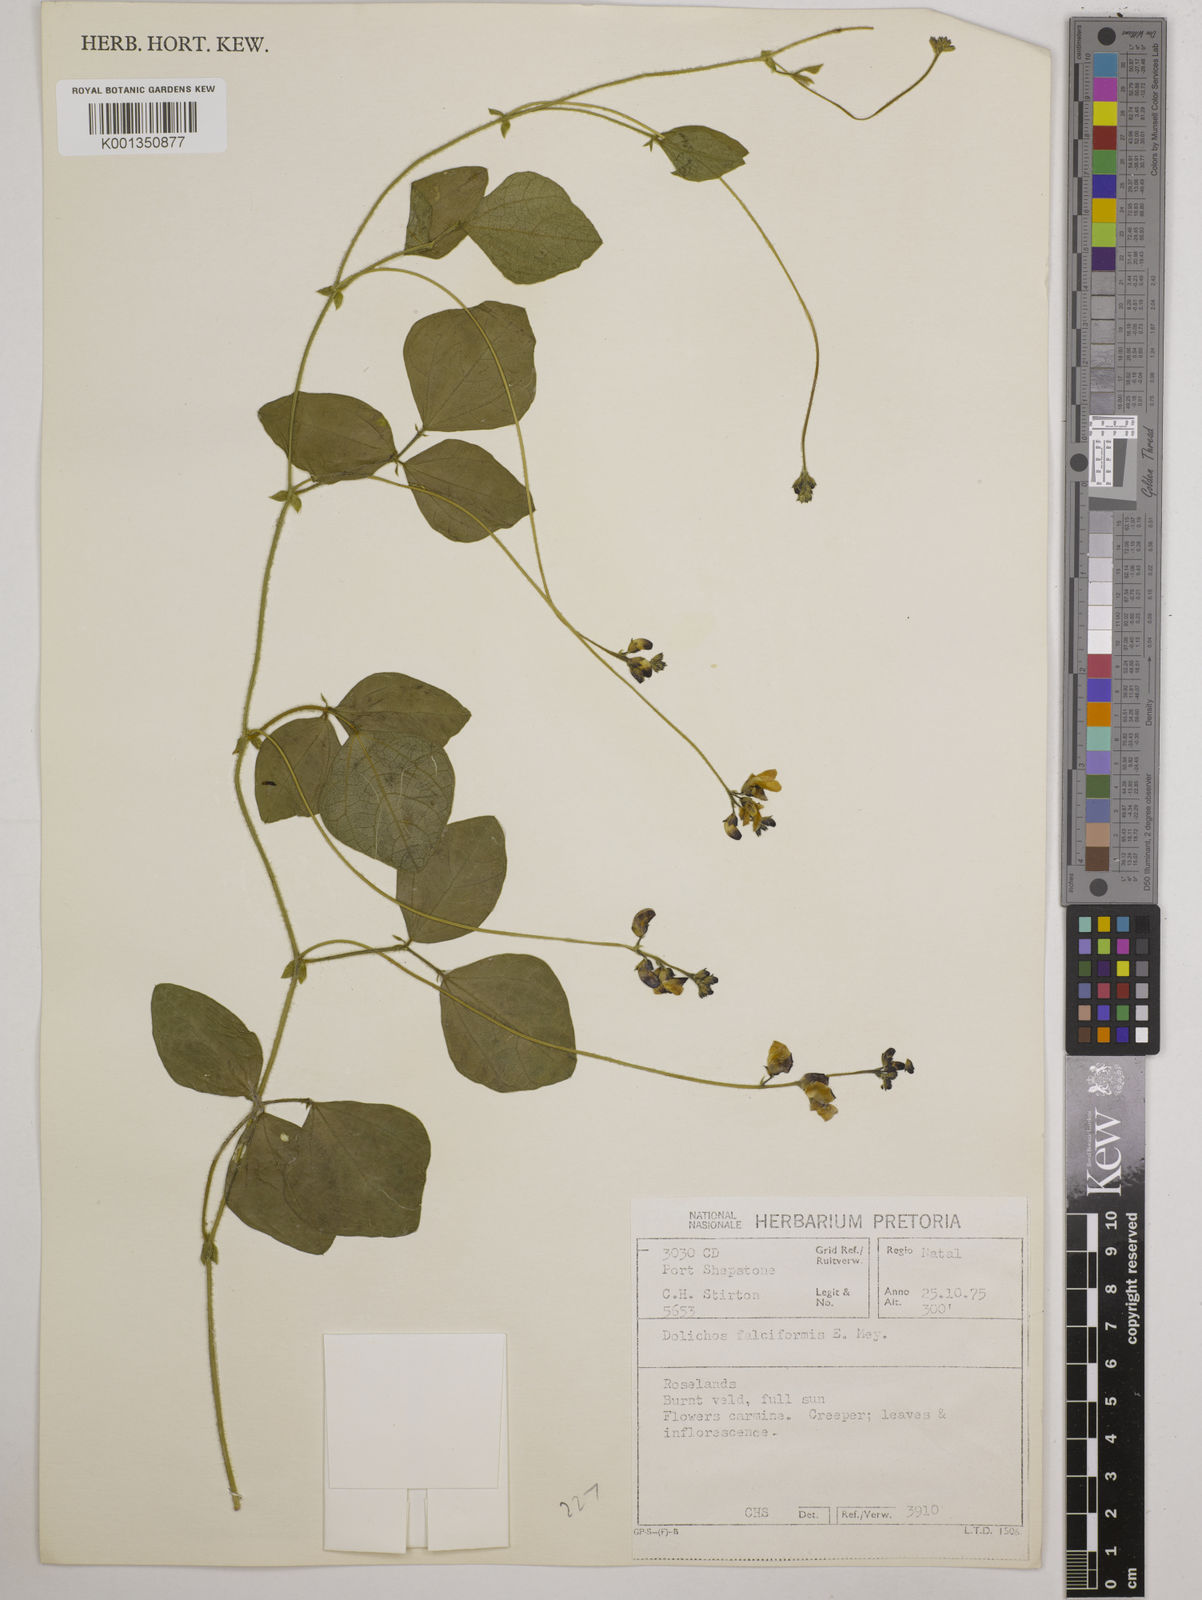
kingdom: Plantae
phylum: Tracheophyta
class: Magnoliopsida
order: Fabales
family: Fabaceae
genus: Dolichos
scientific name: Dolichos falciformis
